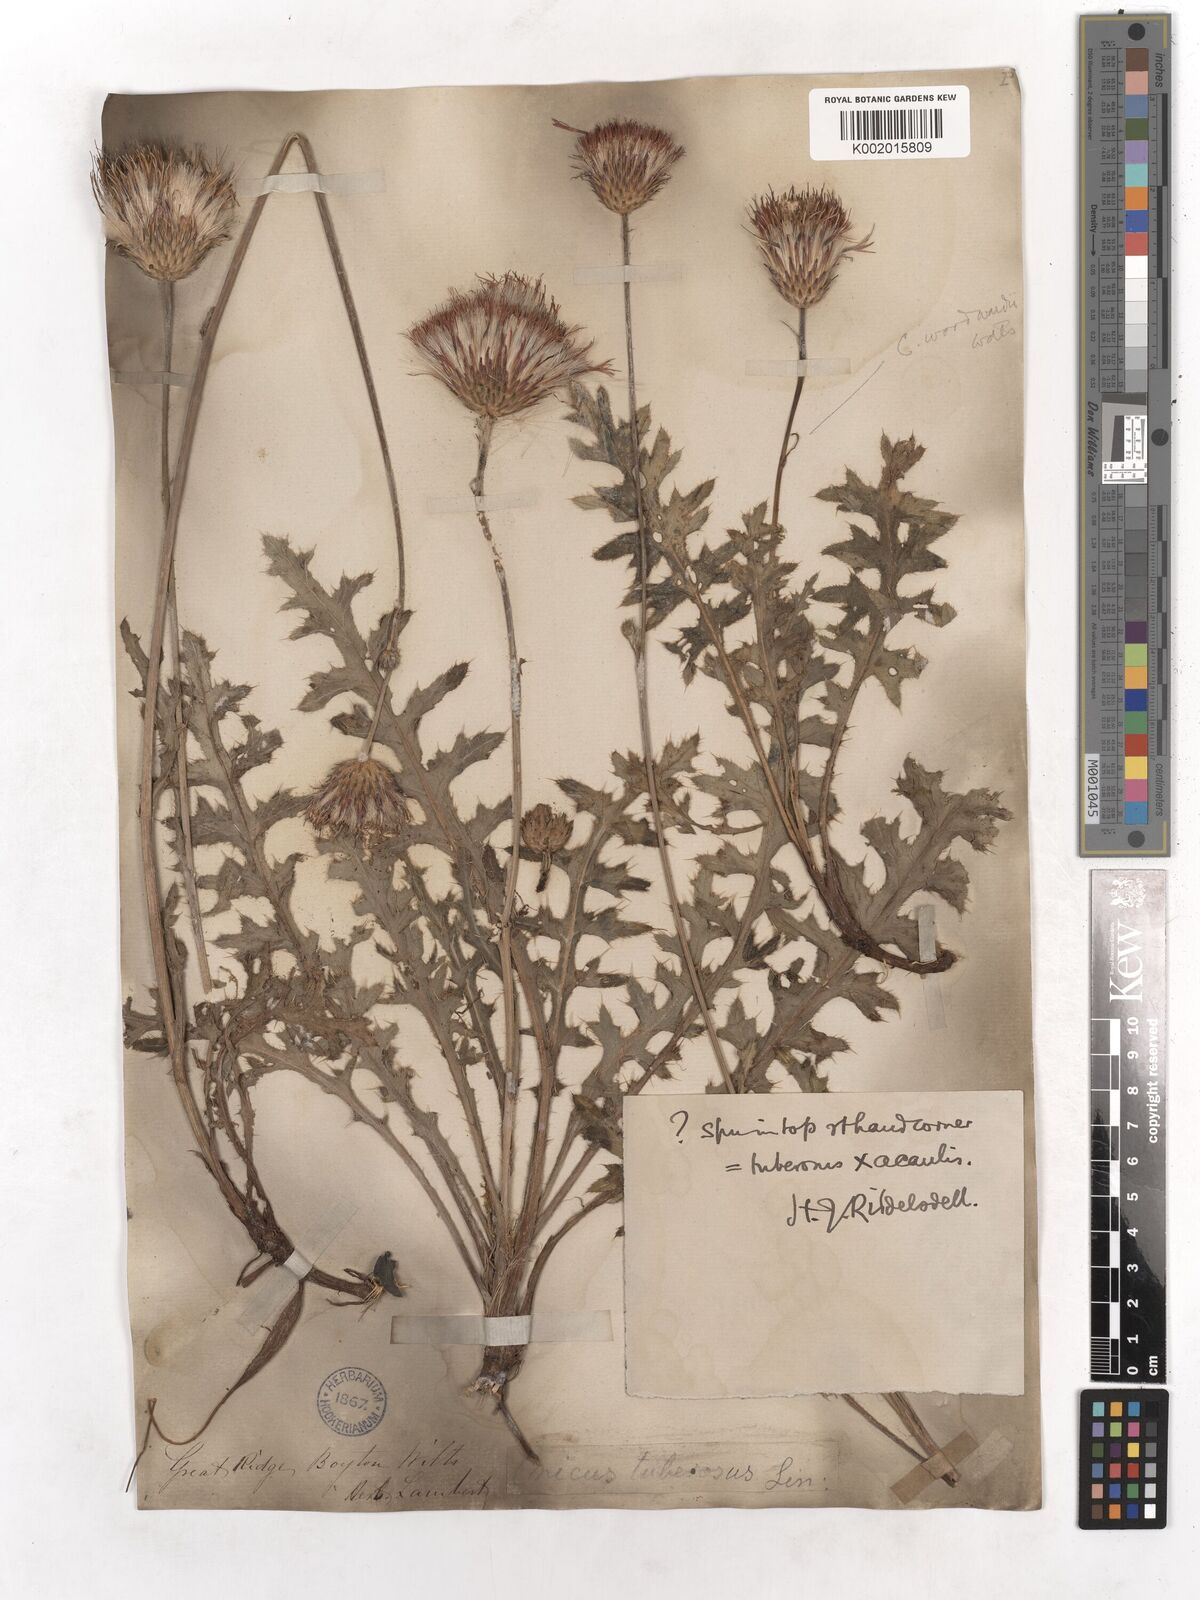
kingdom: Plantae
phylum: Tracheophyta
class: Magnoliopsida
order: Asterales
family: Asteraceae
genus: Cirsium
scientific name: Cirsium tuberosum
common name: Tuberous thistle
